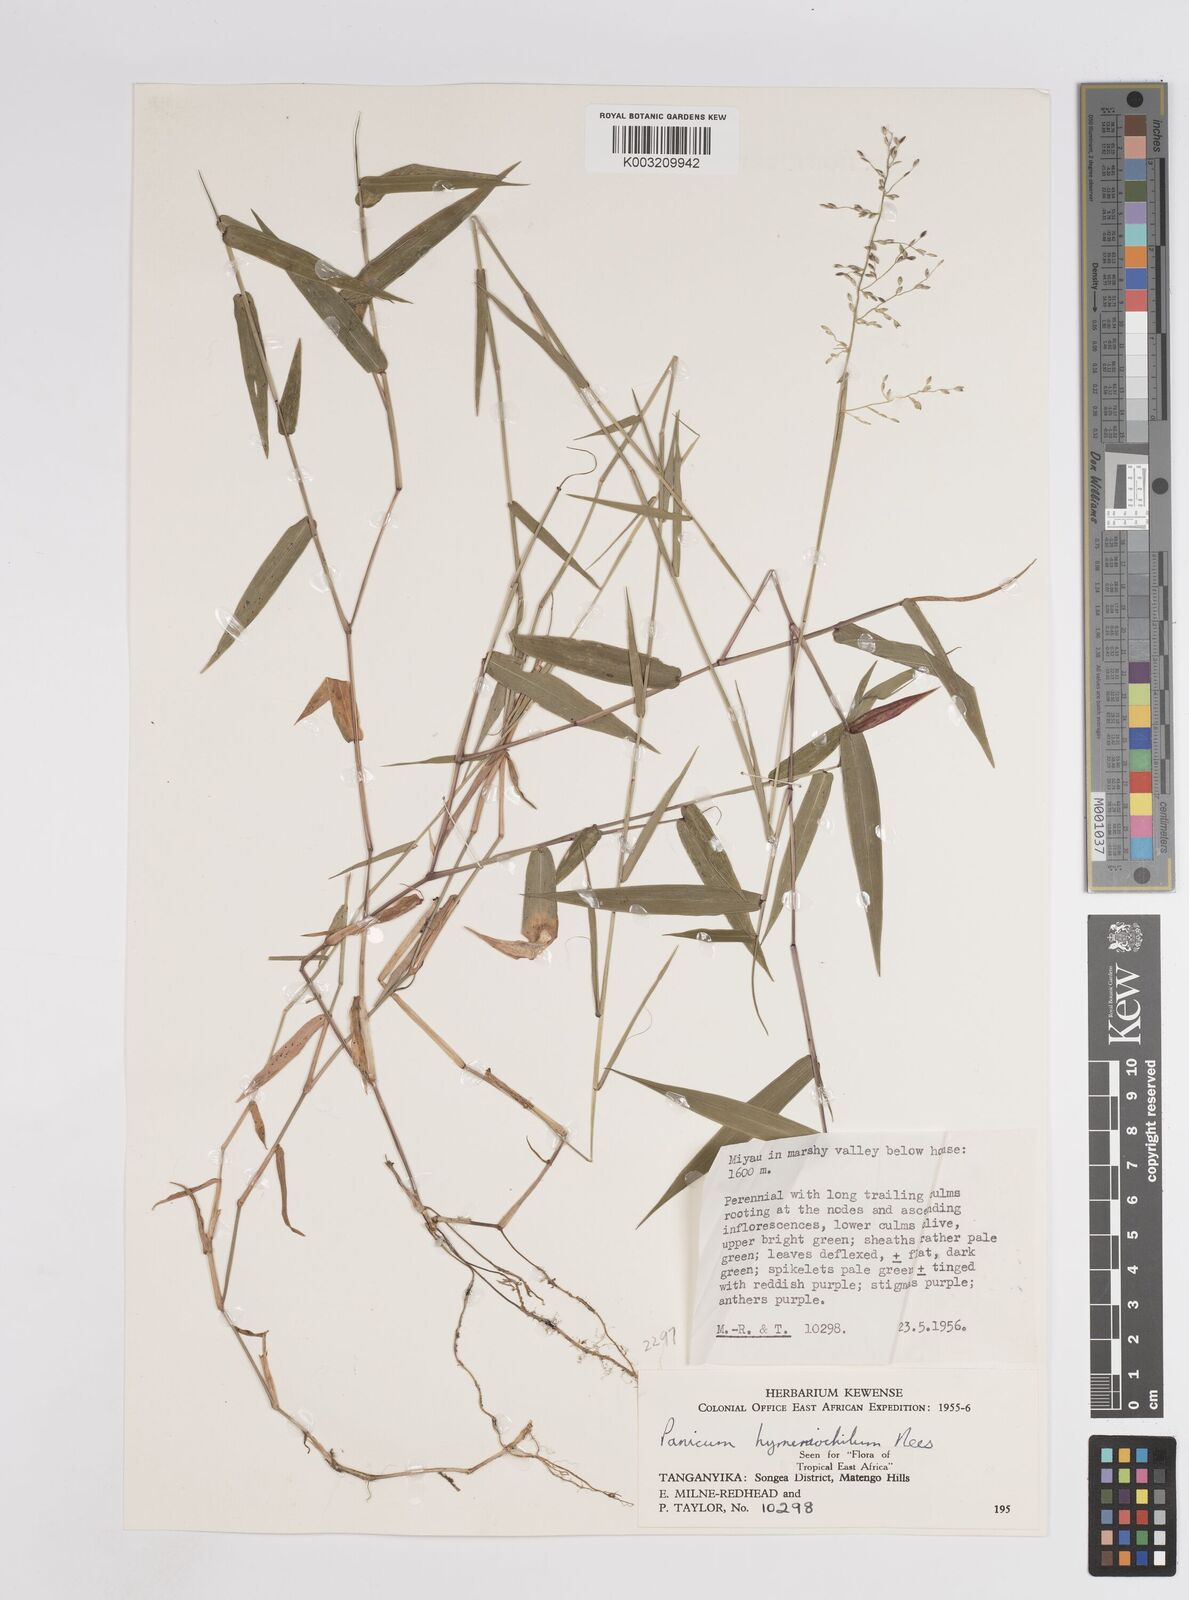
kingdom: Plantae
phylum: Tracheophyta
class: Liliopsida
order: Poales
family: Poaceae
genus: Adenochloa
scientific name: Adenochloa hymeniochila
